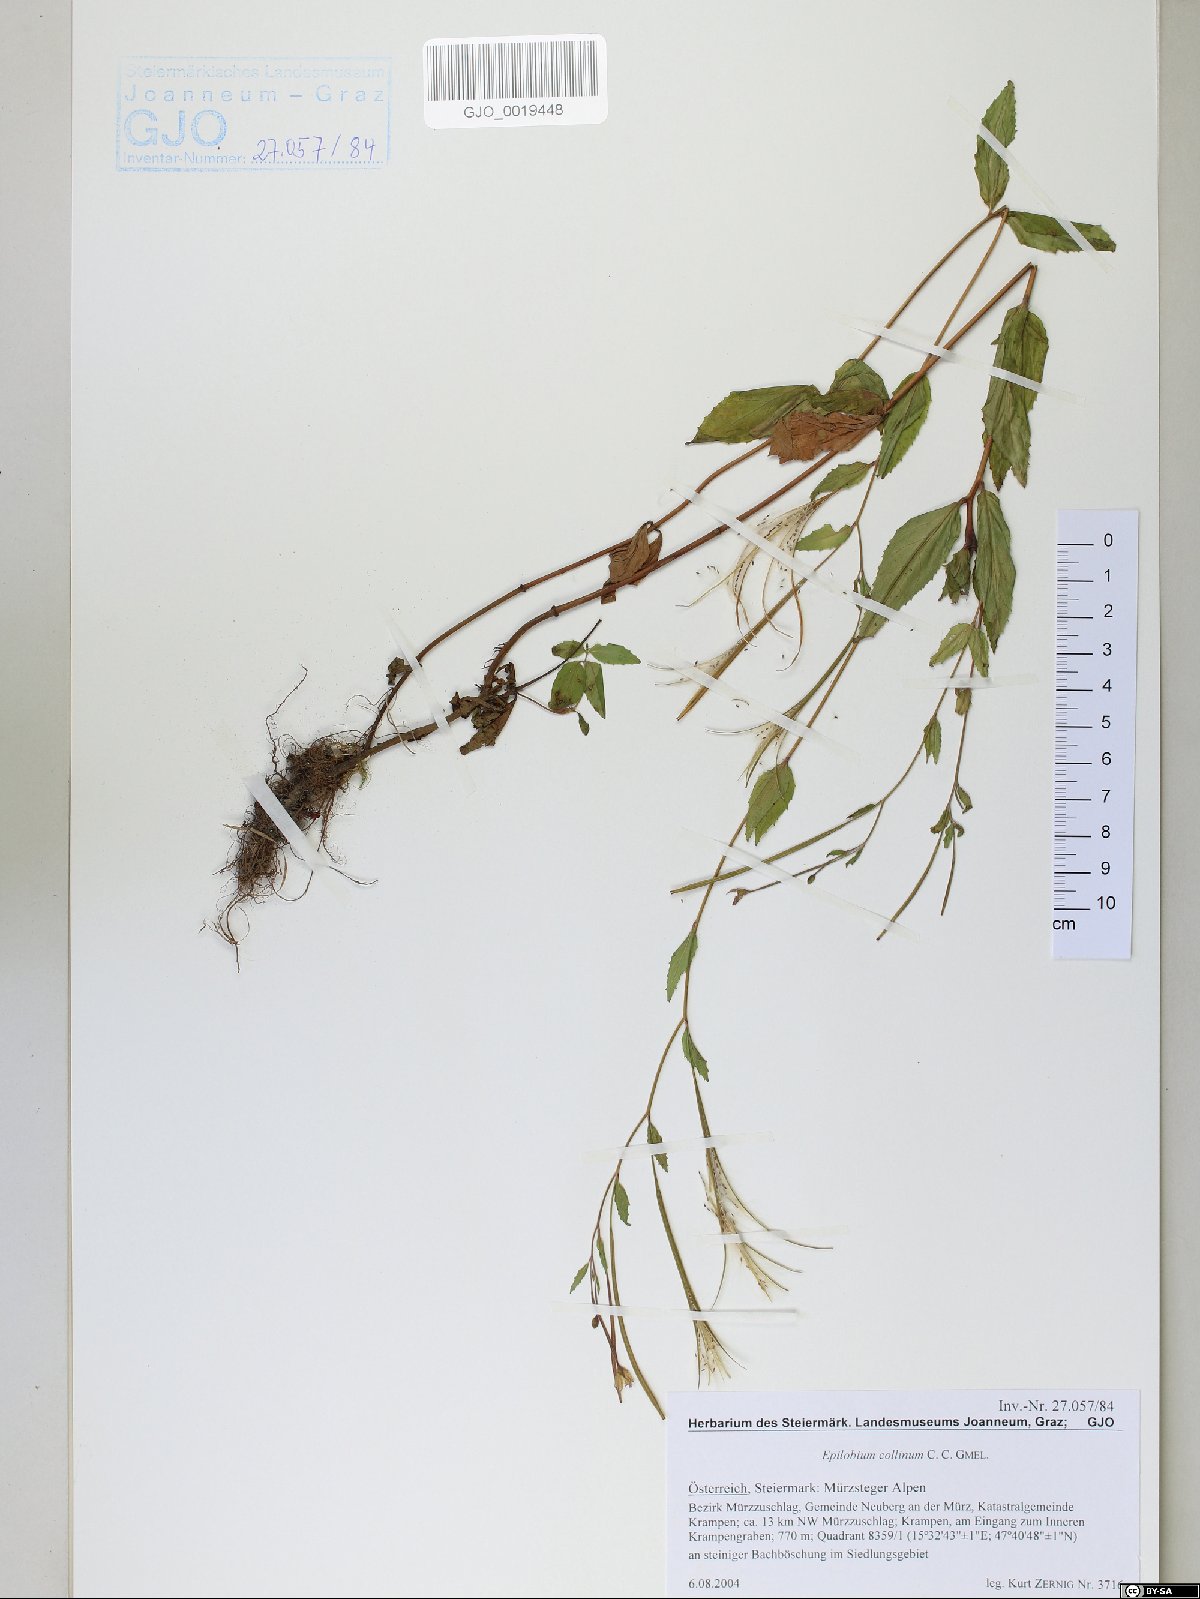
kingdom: Plantae
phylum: Tracheophyta
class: Magnoliopsida
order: Myrtales
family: Onagraceae
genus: Epilobium
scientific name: Epilobium collinum
